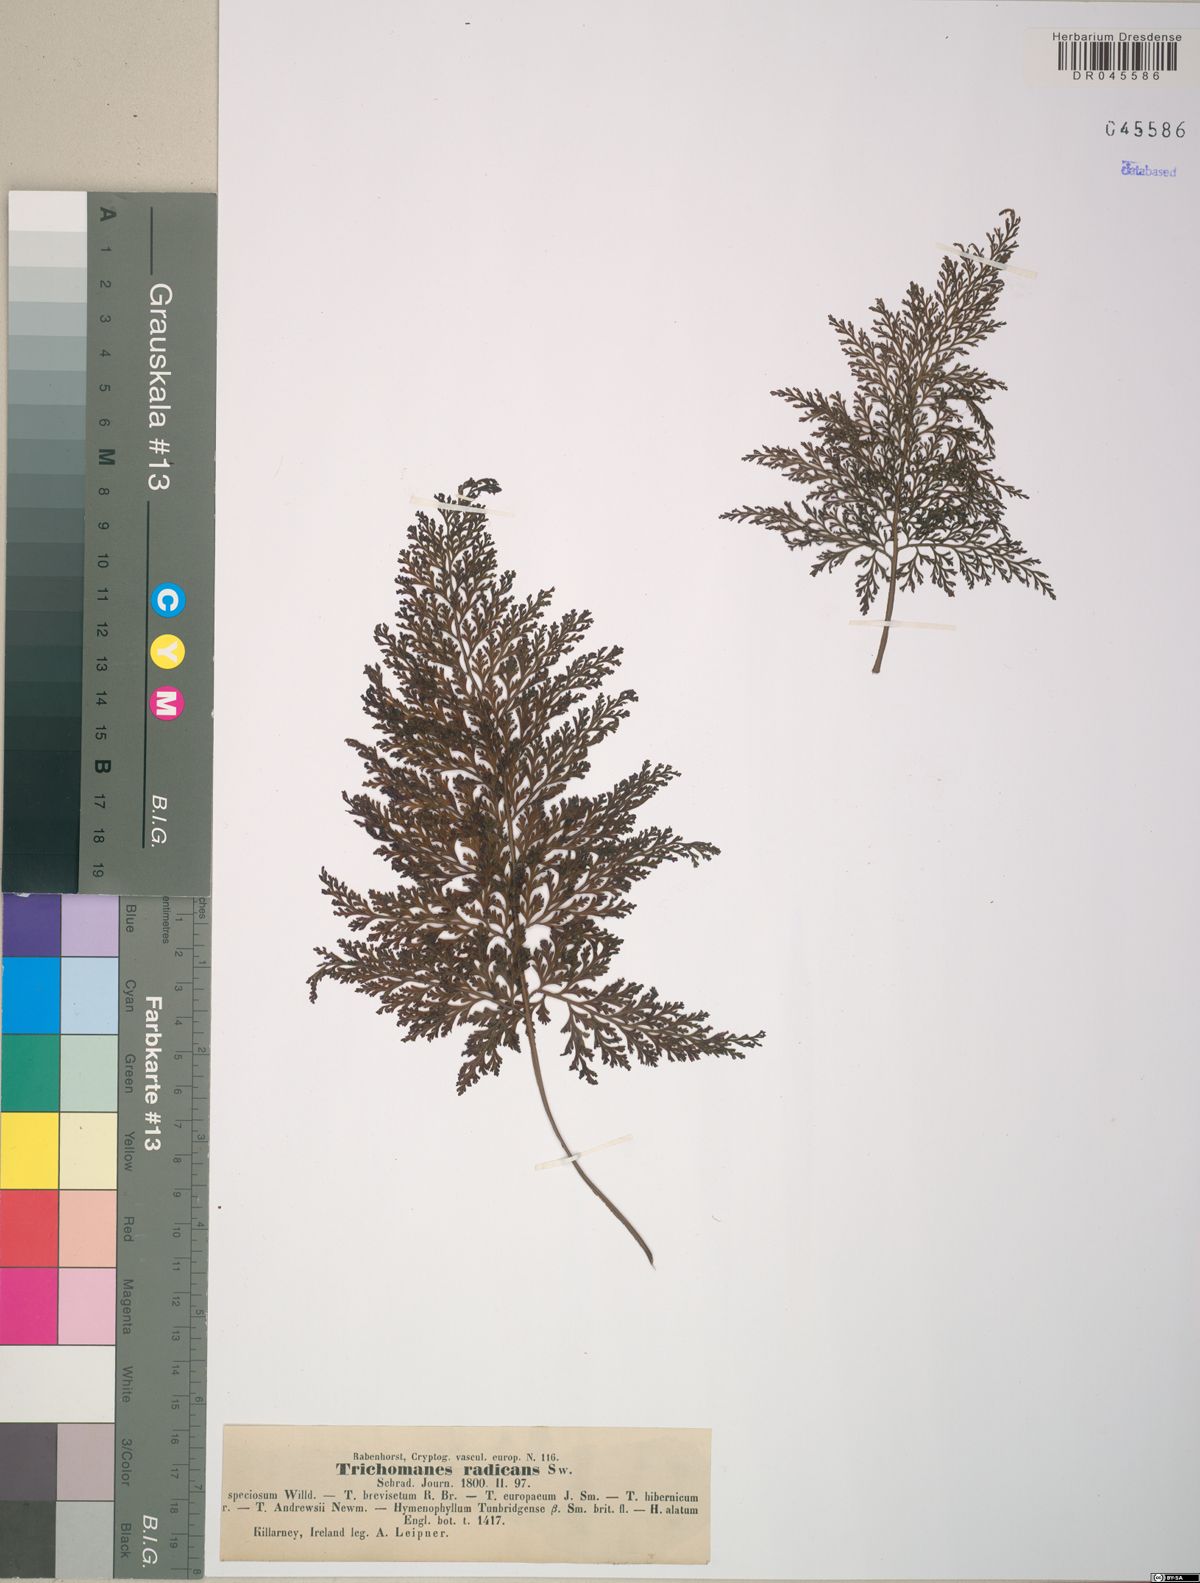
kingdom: Plantae
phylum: Tracheophyta
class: Polypodiopsida
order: Hymenophyllales
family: Hymenophyllaceae
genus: Vandenboschia
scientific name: Vandenboschia radicans
